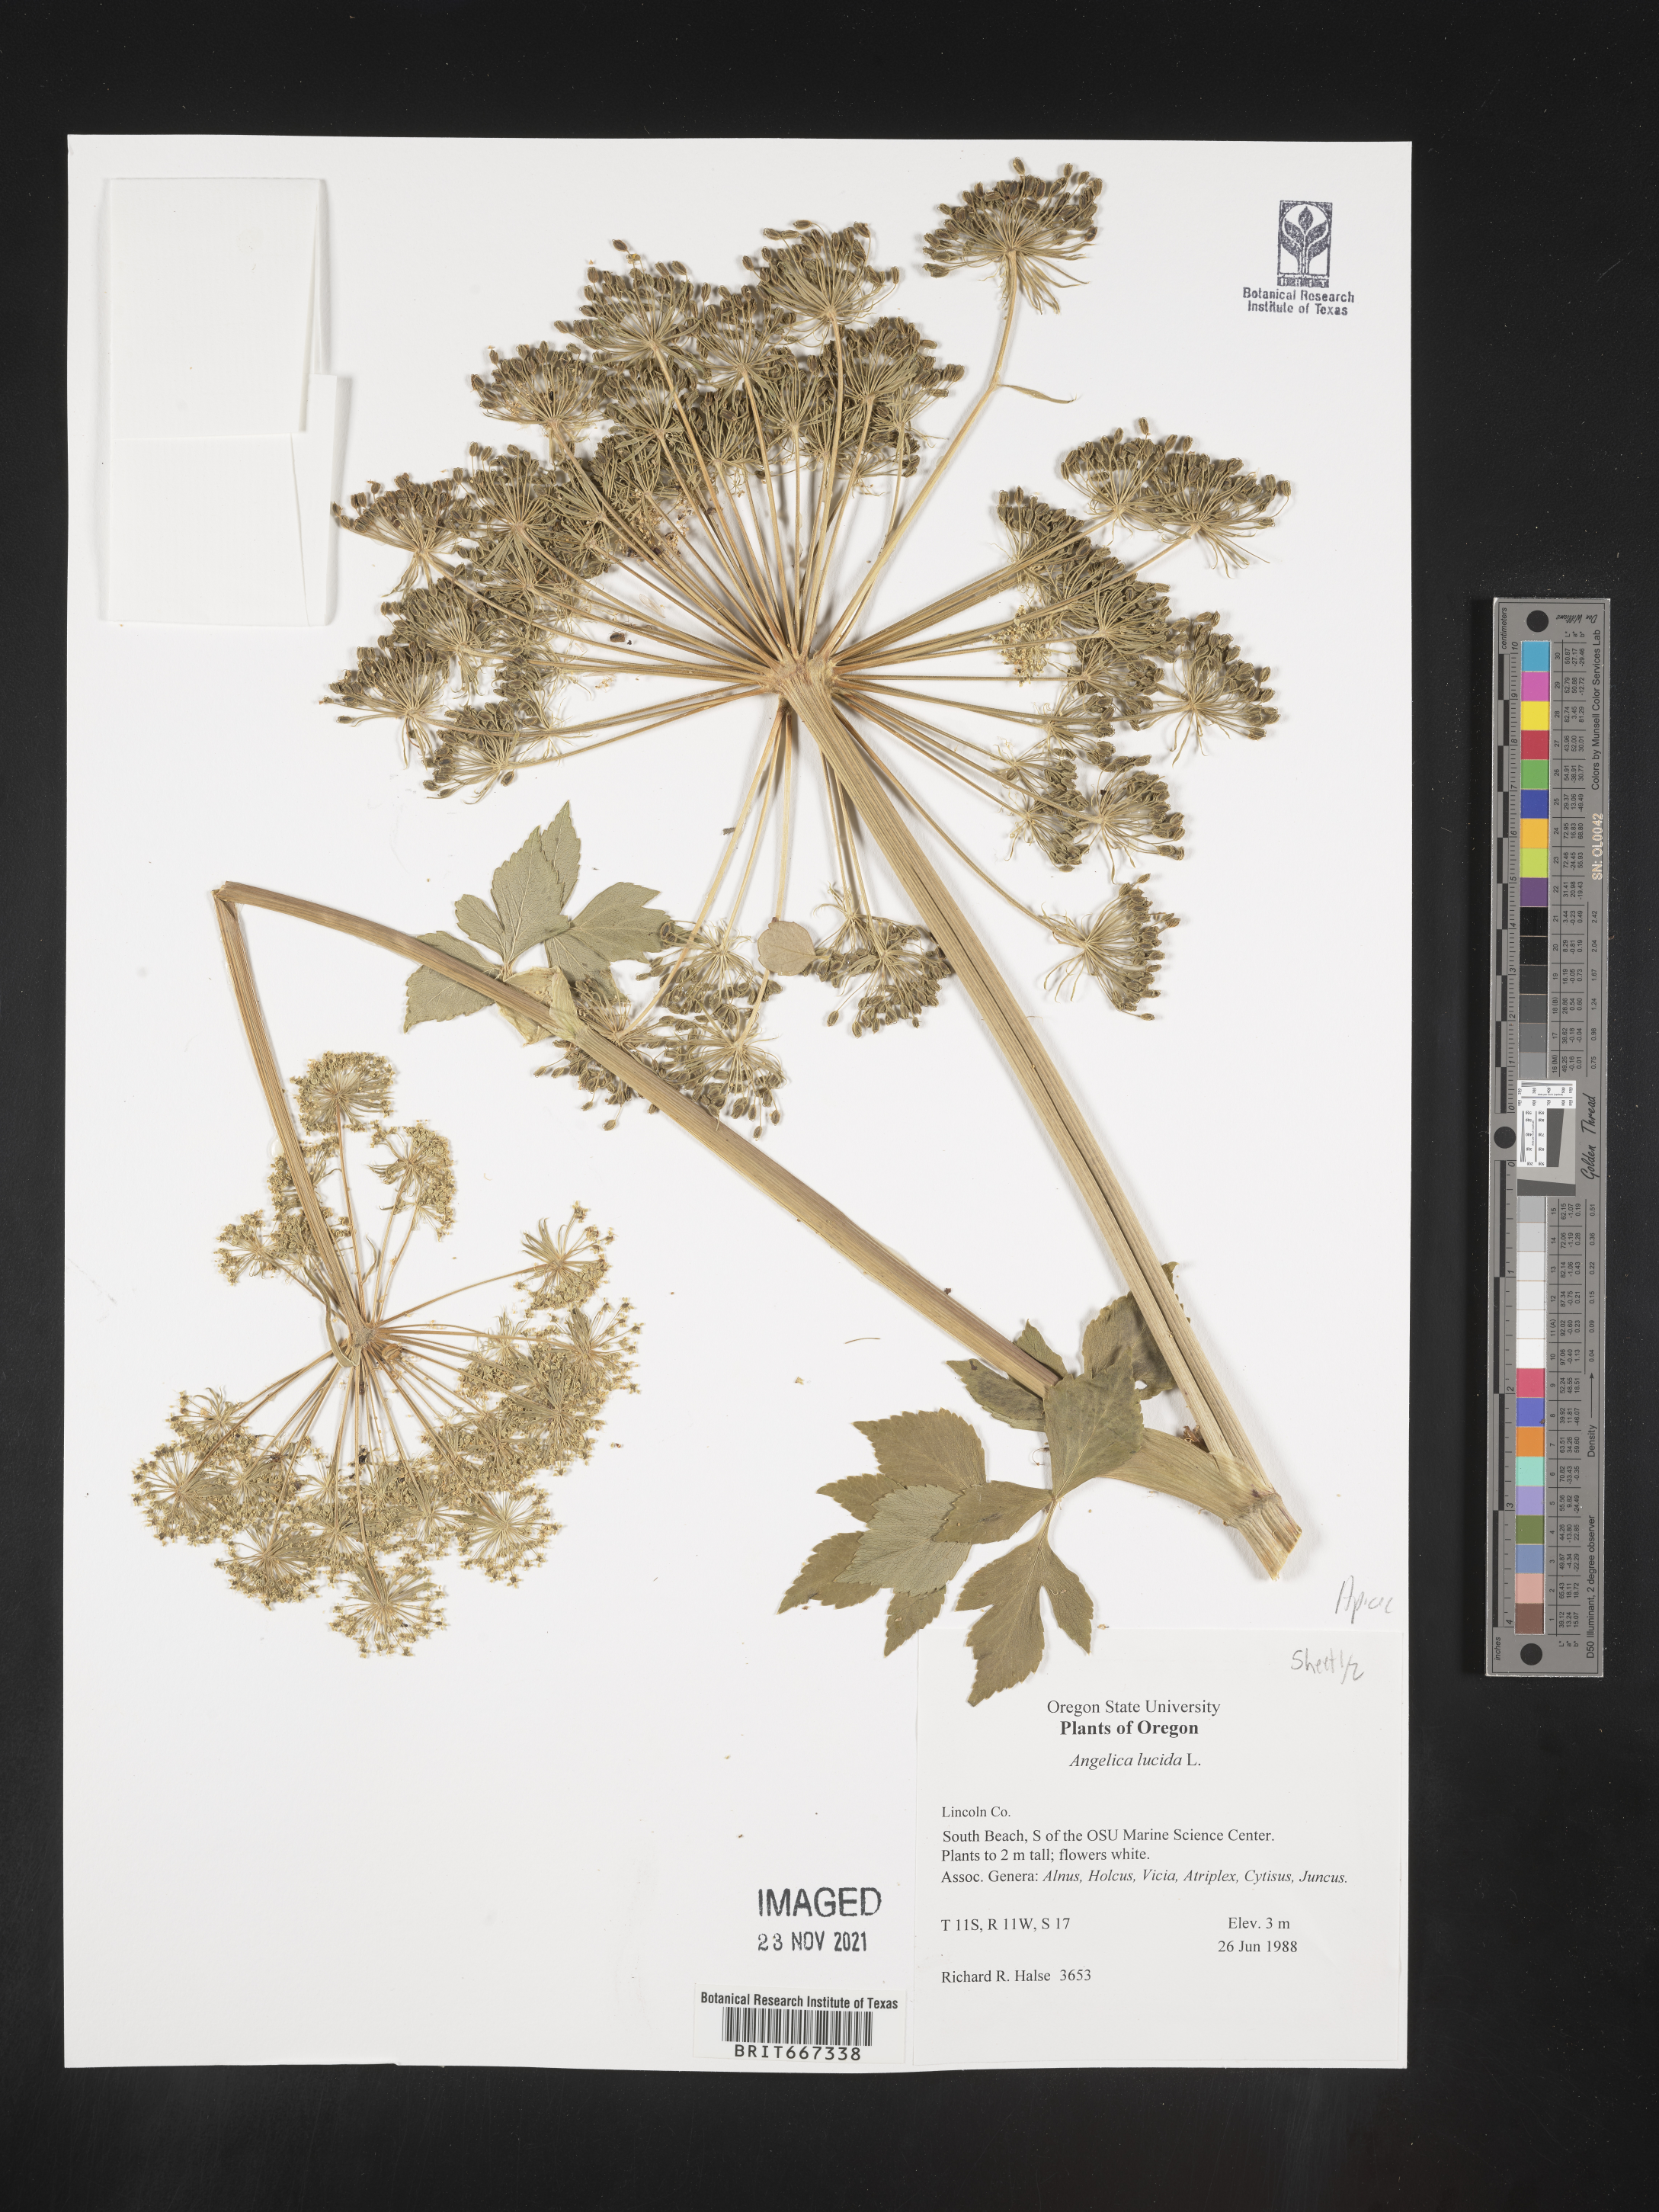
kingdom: Plantae
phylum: Tracheophyta
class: Magnoliopsida
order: Apiales
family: Apiaceae
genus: Angelica
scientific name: Angelica
